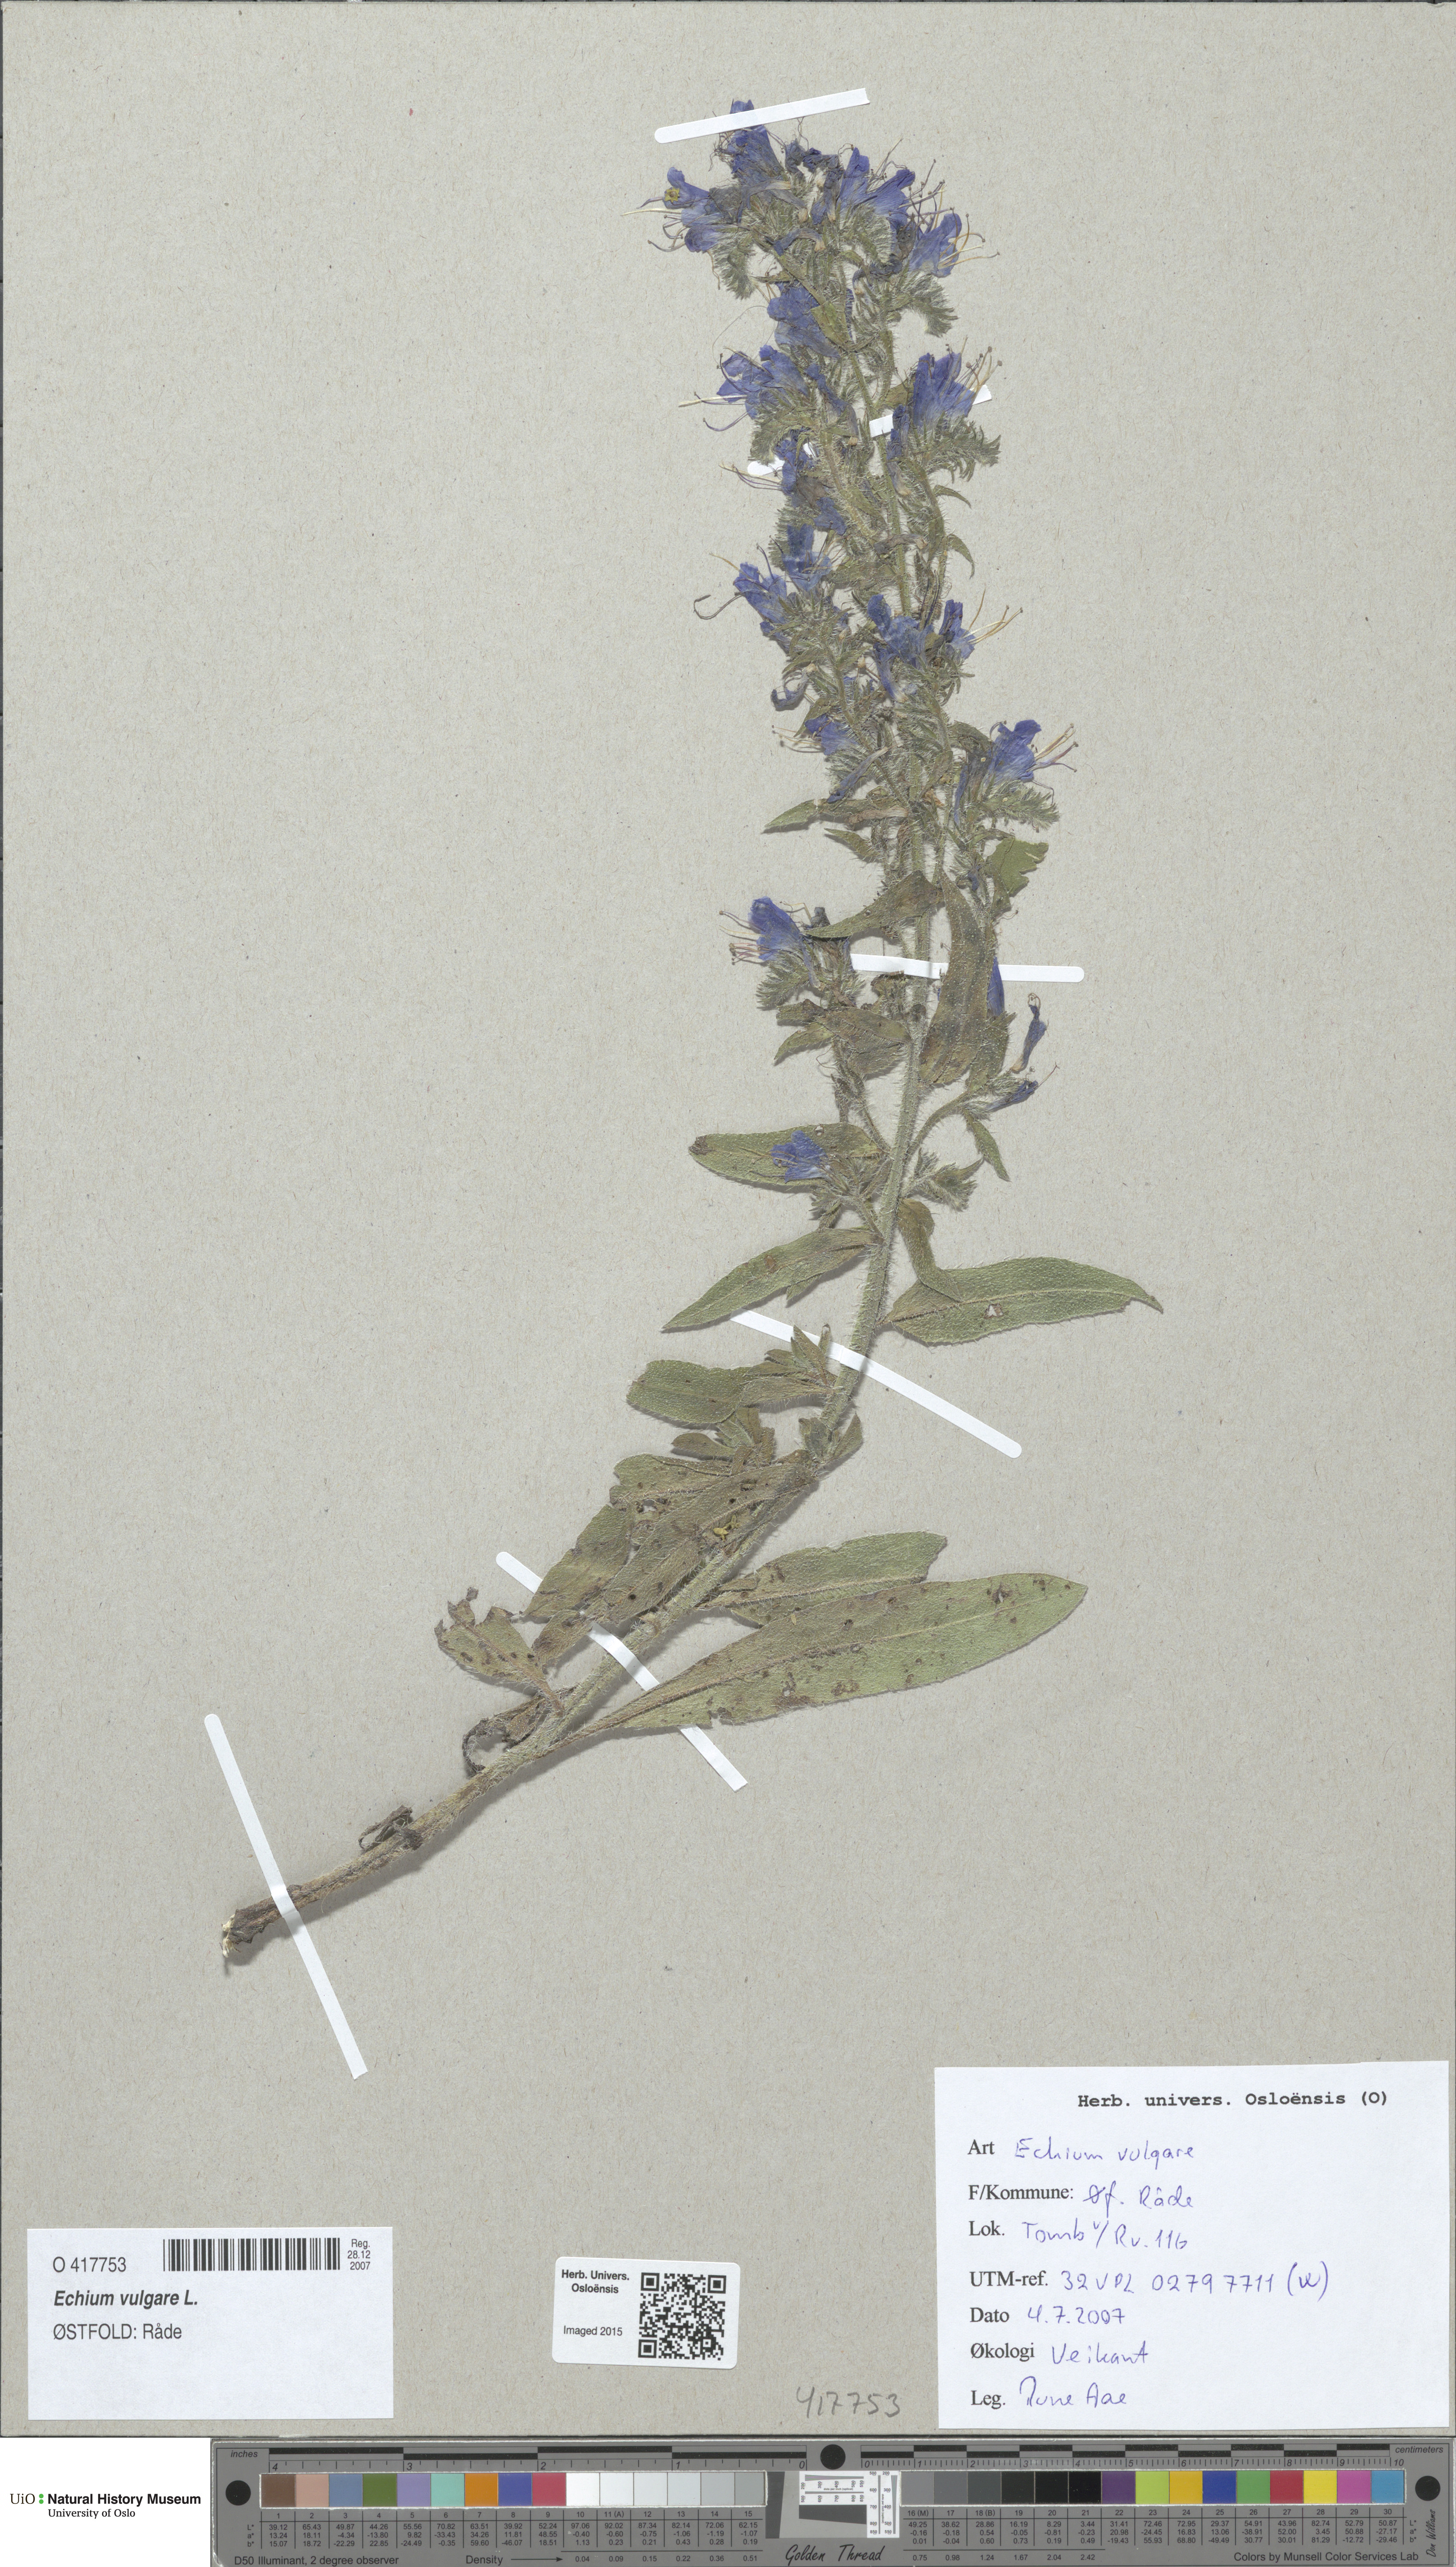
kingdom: Plantae
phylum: Tracheophyta
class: Magnoliopsida
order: Boraginales
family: Boraginaceae
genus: Echium
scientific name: Echium vulgare
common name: Common viper's bugloss
